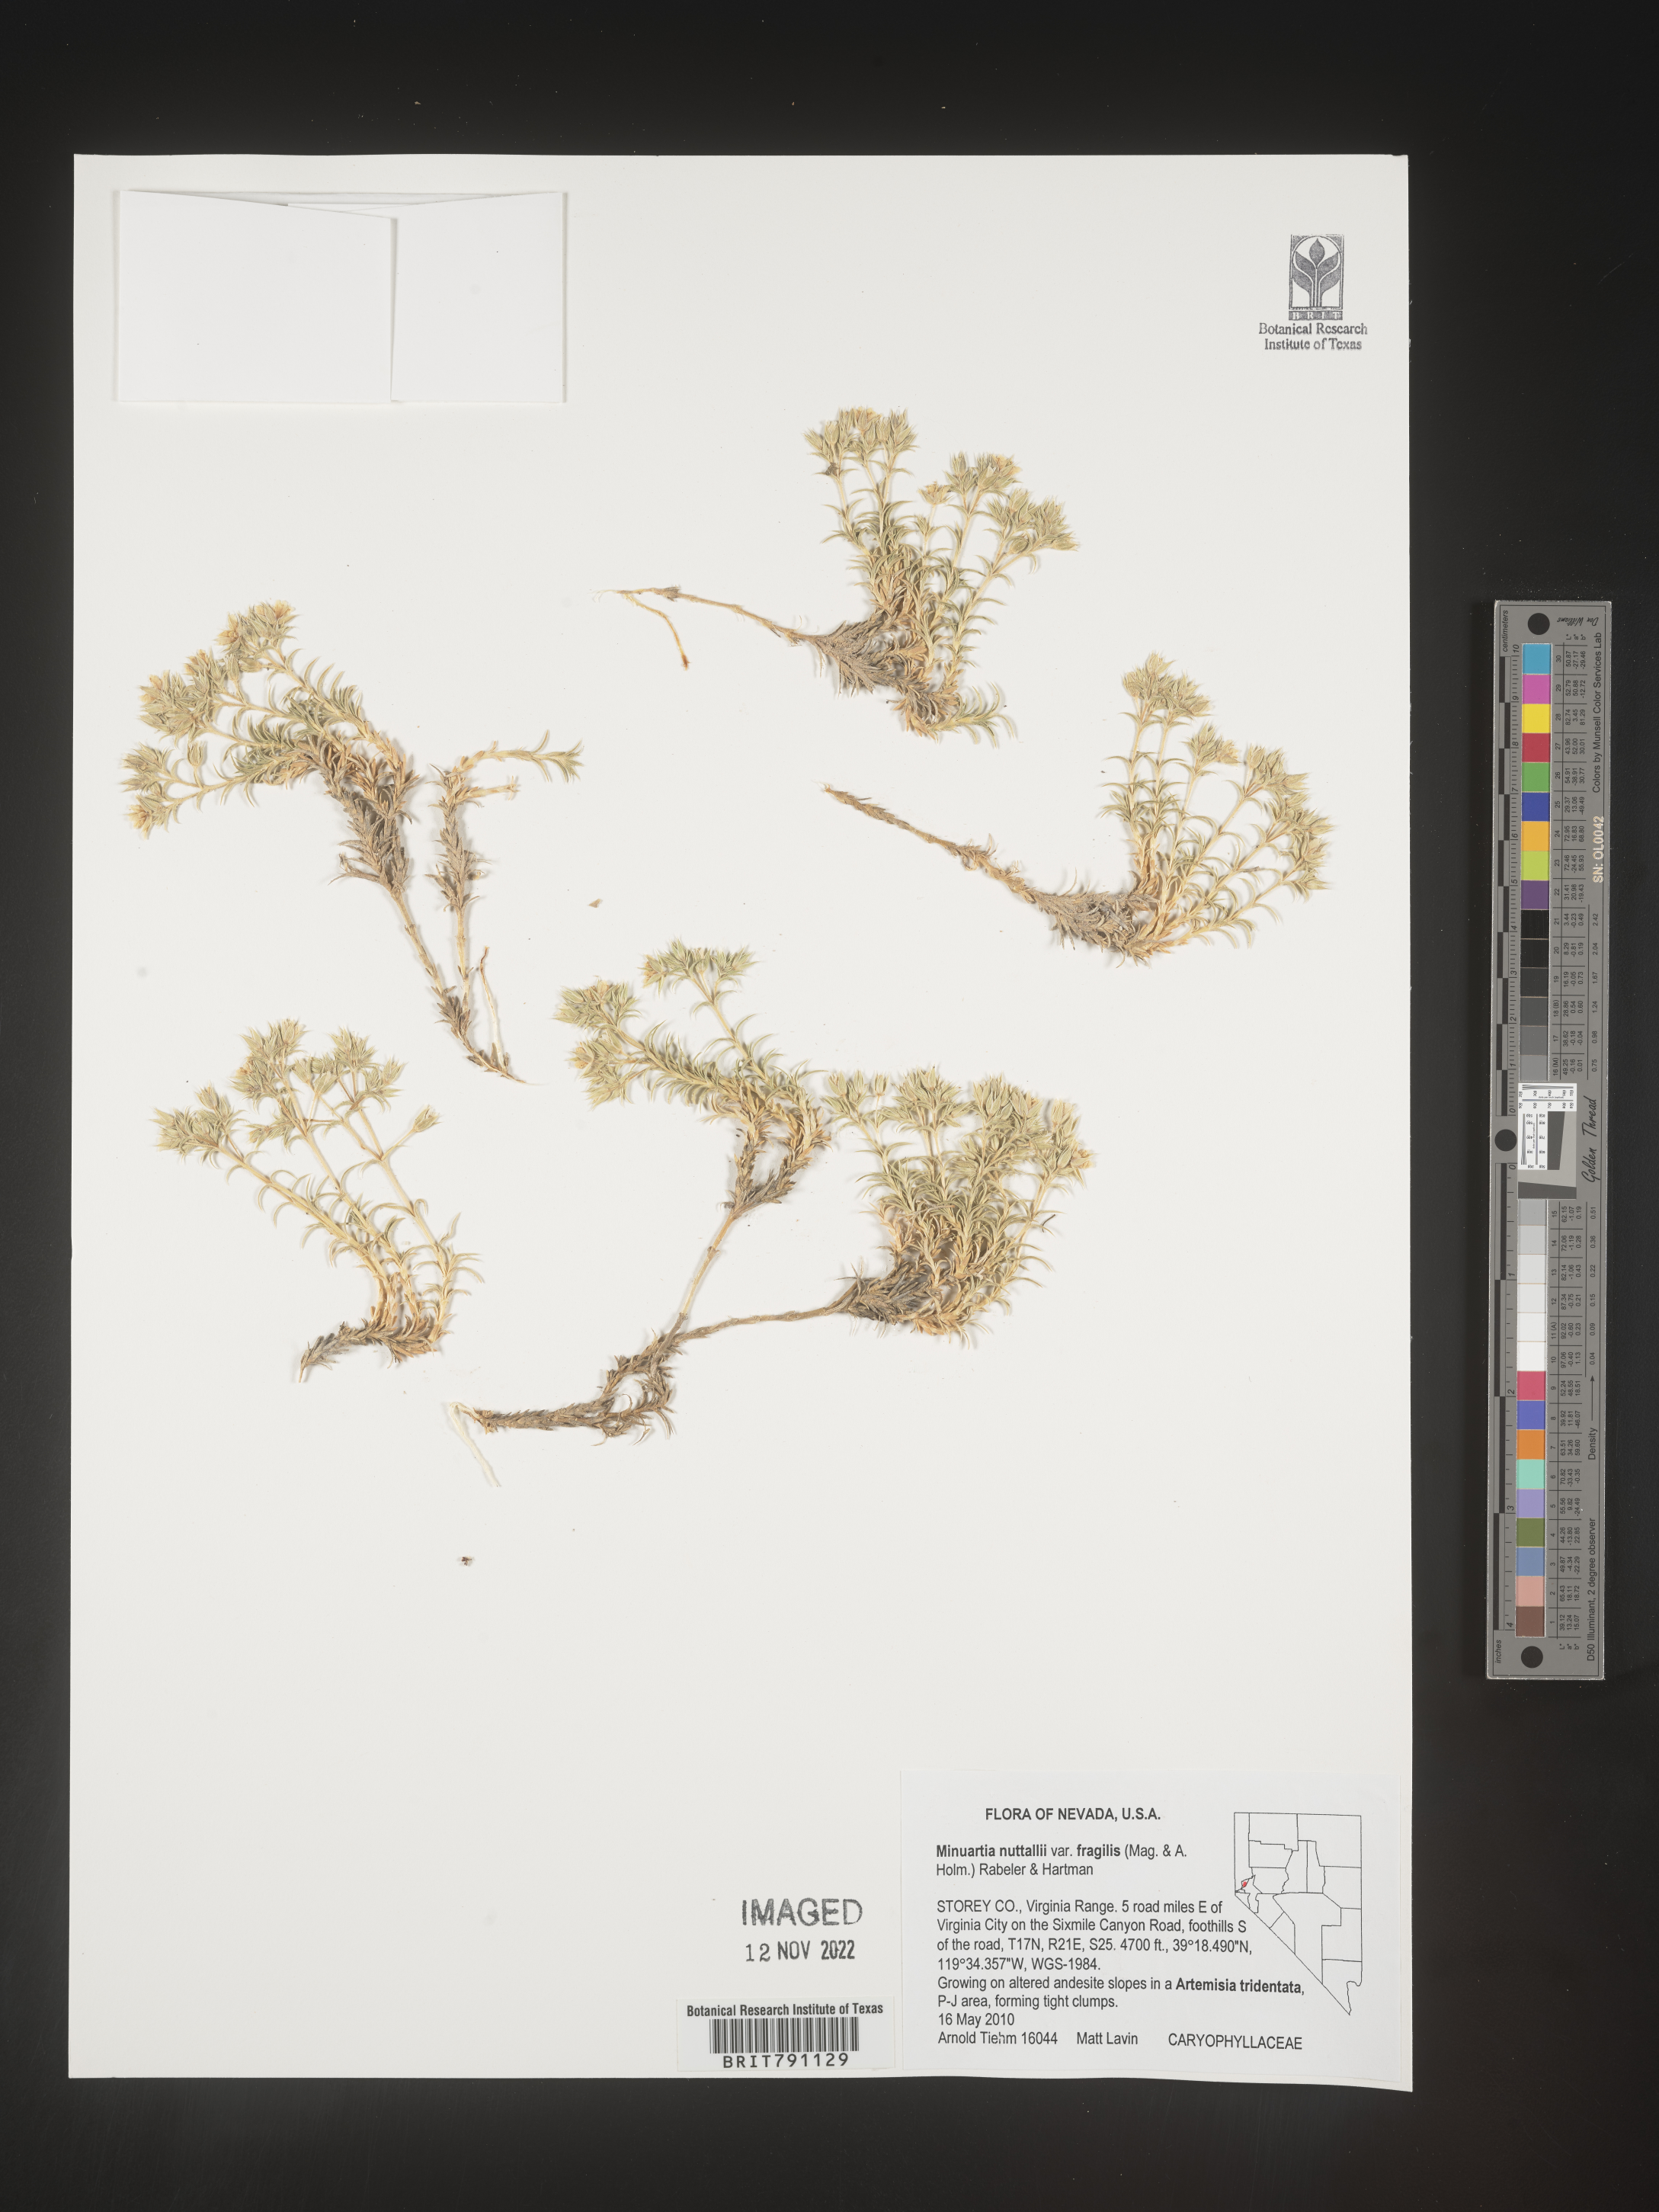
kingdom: Plantae
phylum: Tracheophyta
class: Magnoliopsida
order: Caryophyllales
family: Caryophyllaceae
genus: Sabulina
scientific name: Sabulina nuttallii
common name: Nuttall's stitchwort
